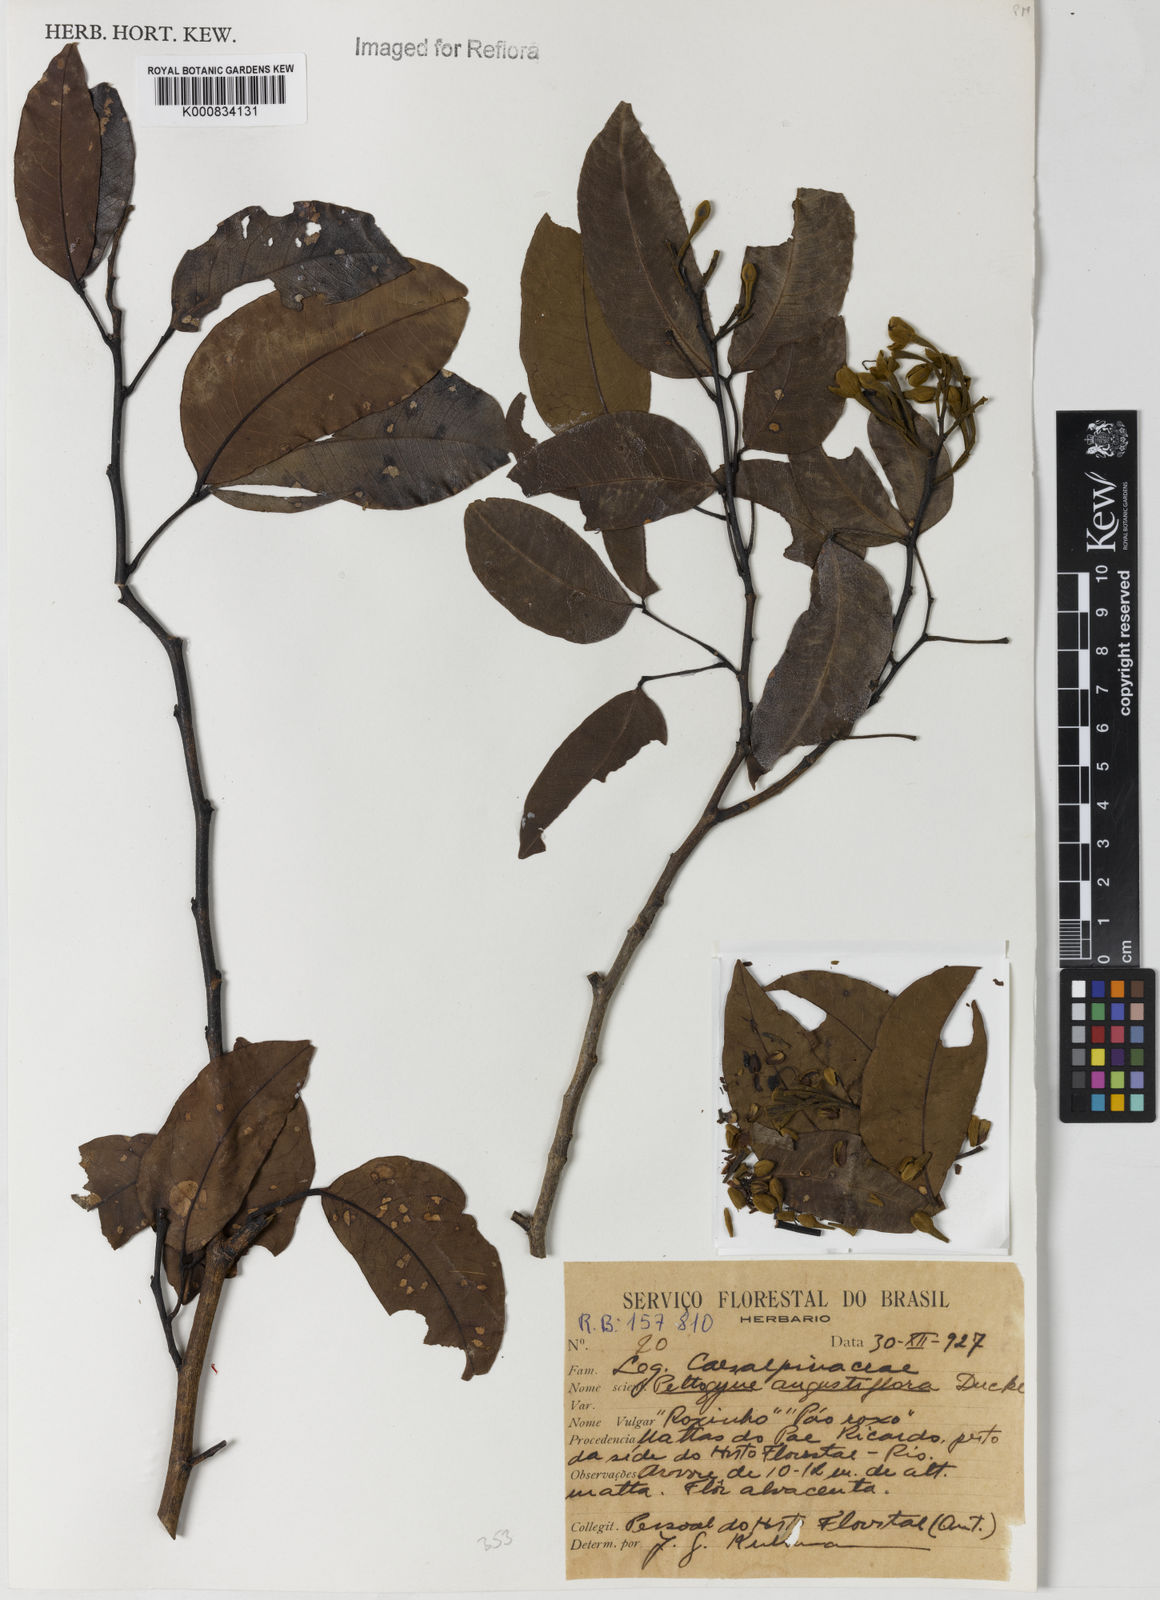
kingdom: Plantae
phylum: Tracheophyta
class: Magnoliopsida
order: Fabales
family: Fabaceae
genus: Peltogyne
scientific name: Peltogyne angustiflora
